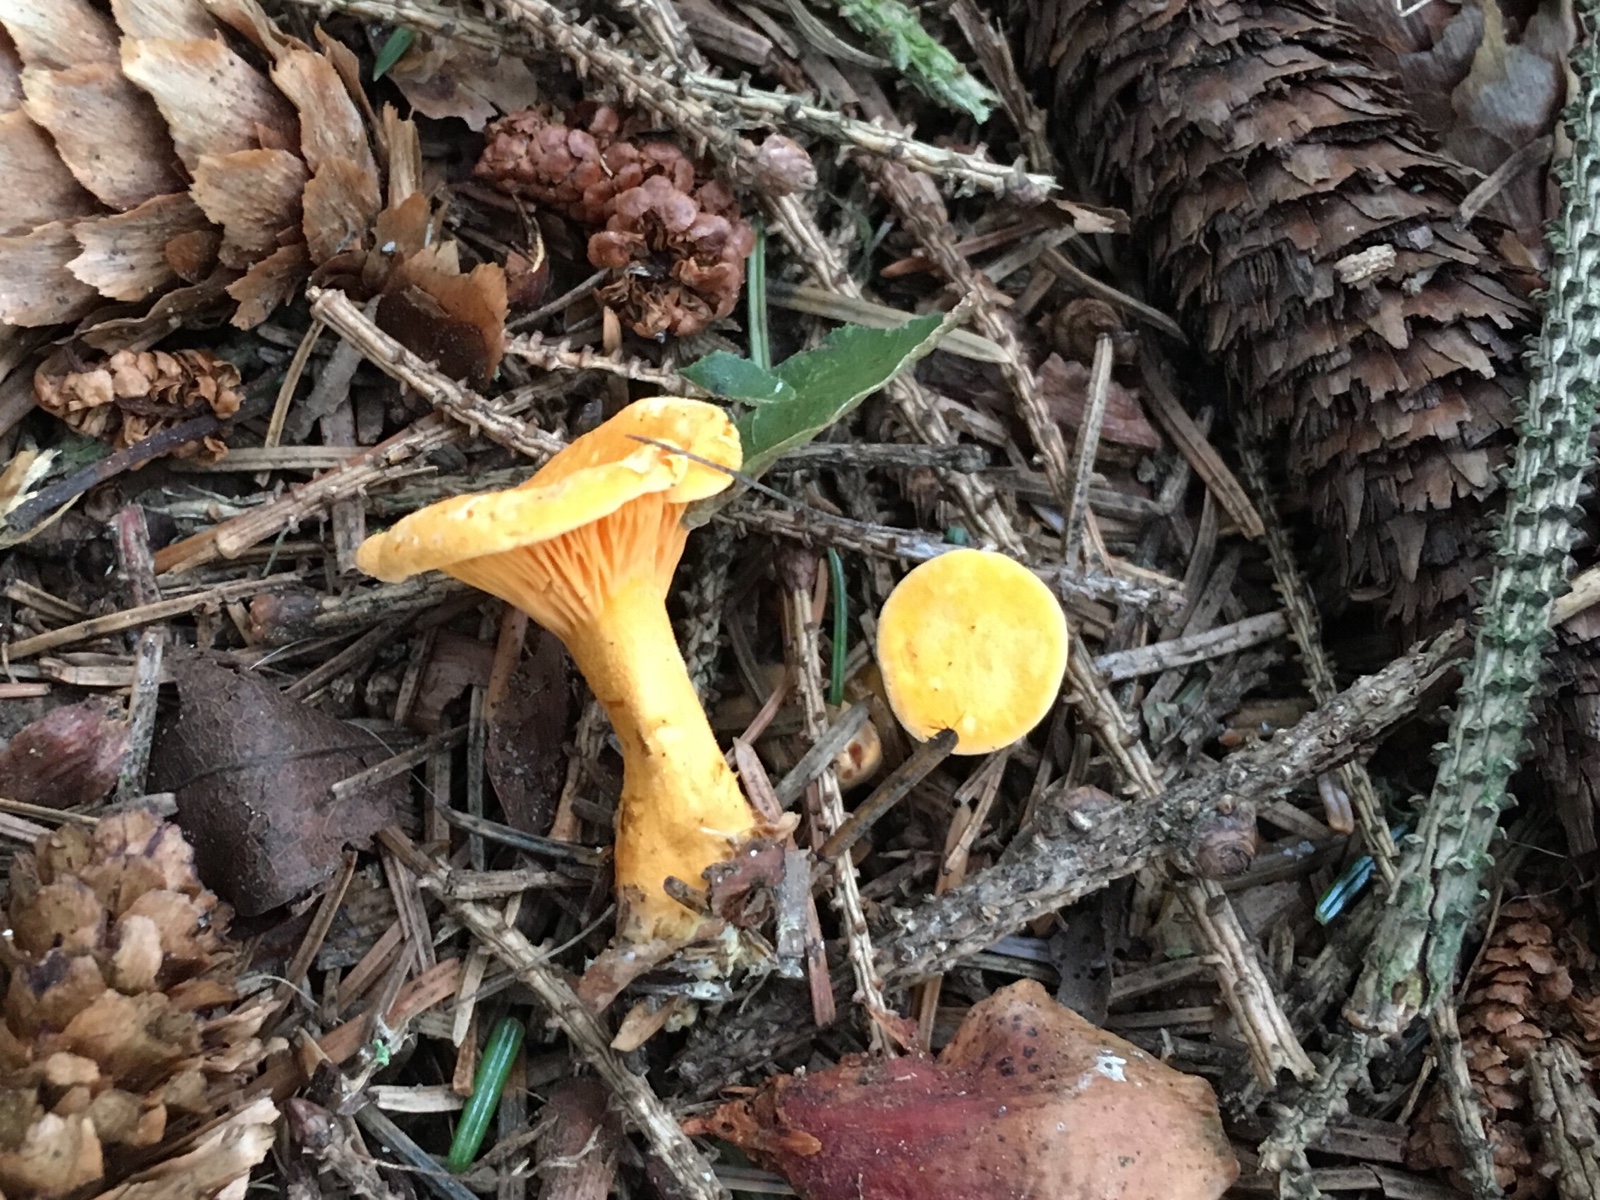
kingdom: Fungi
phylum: Basidiomycota
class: Agaricomycetes
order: Boletales
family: Hygrophoropsidaceae
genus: Hygrophoropsis
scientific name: Hygrophoropsis aurantiaca
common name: almindelig orangekantarel
